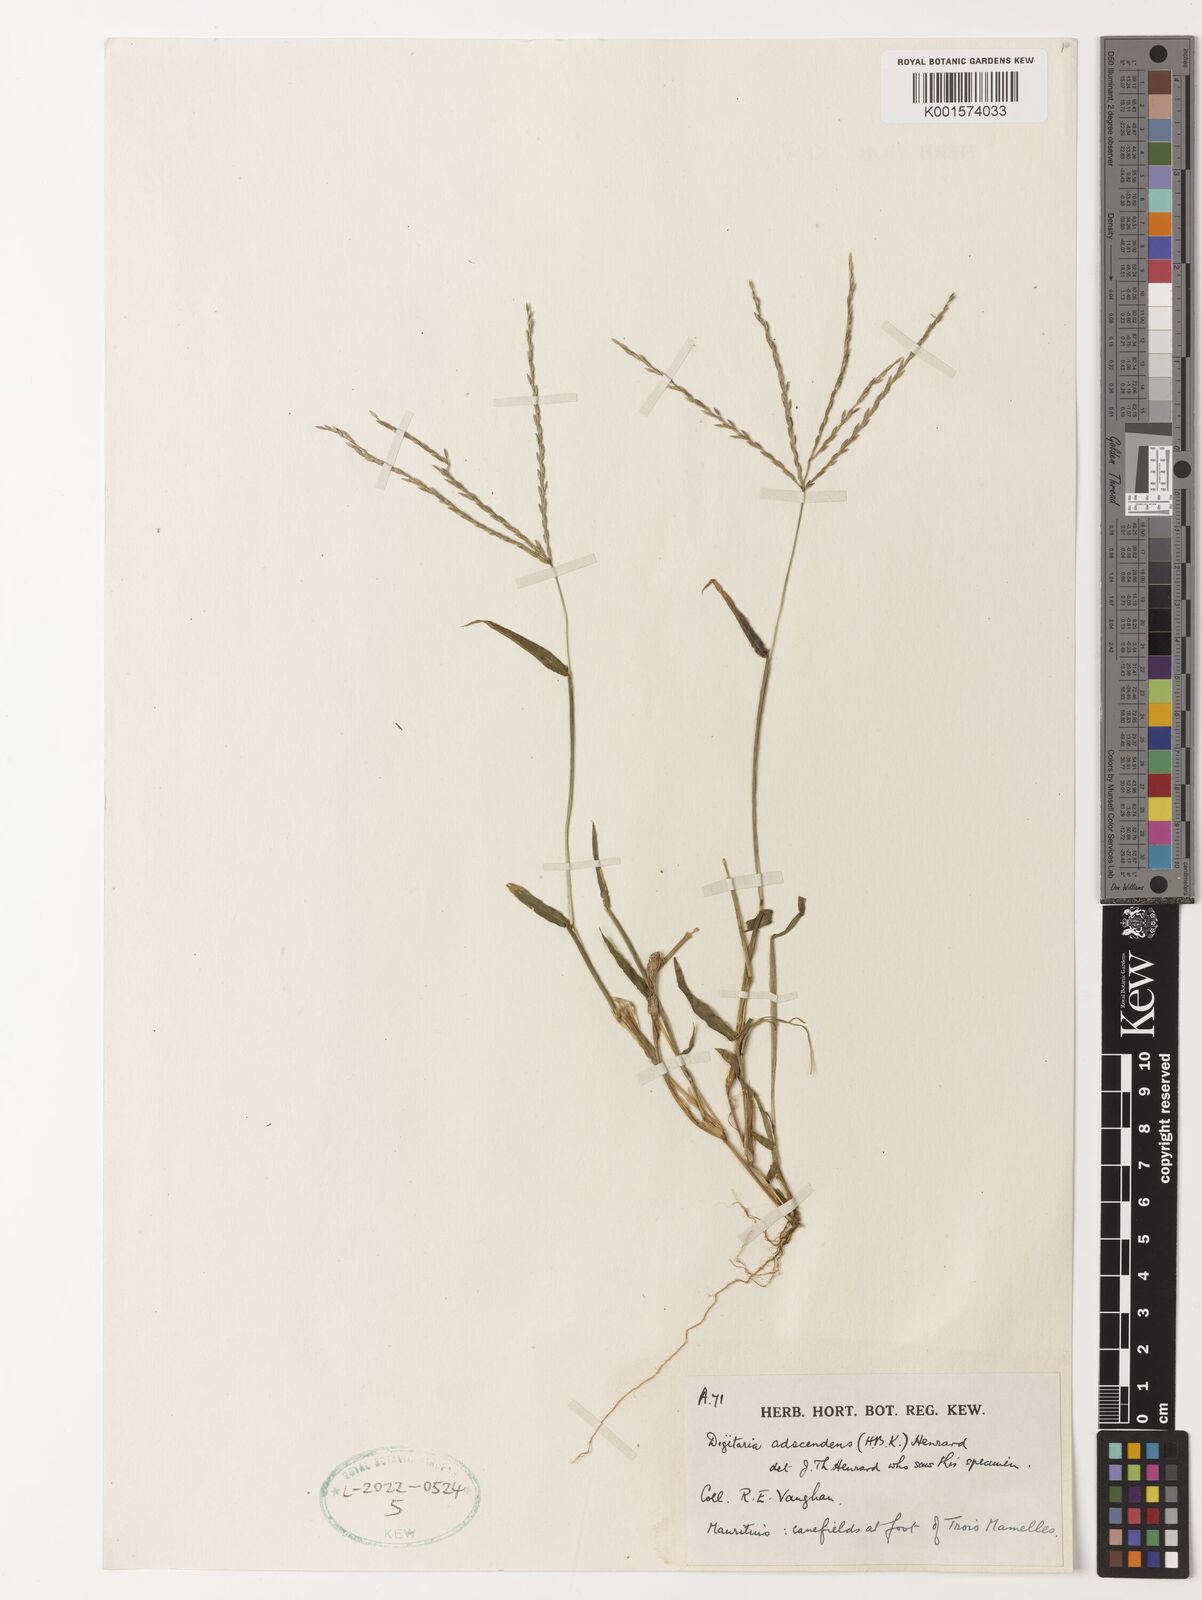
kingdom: Plantae
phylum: Tracheophyta
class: Liliopsida
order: Poales
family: Poaceae
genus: Digitaria
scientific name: Digitaria ciliaris
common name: Tropical finger-grass
